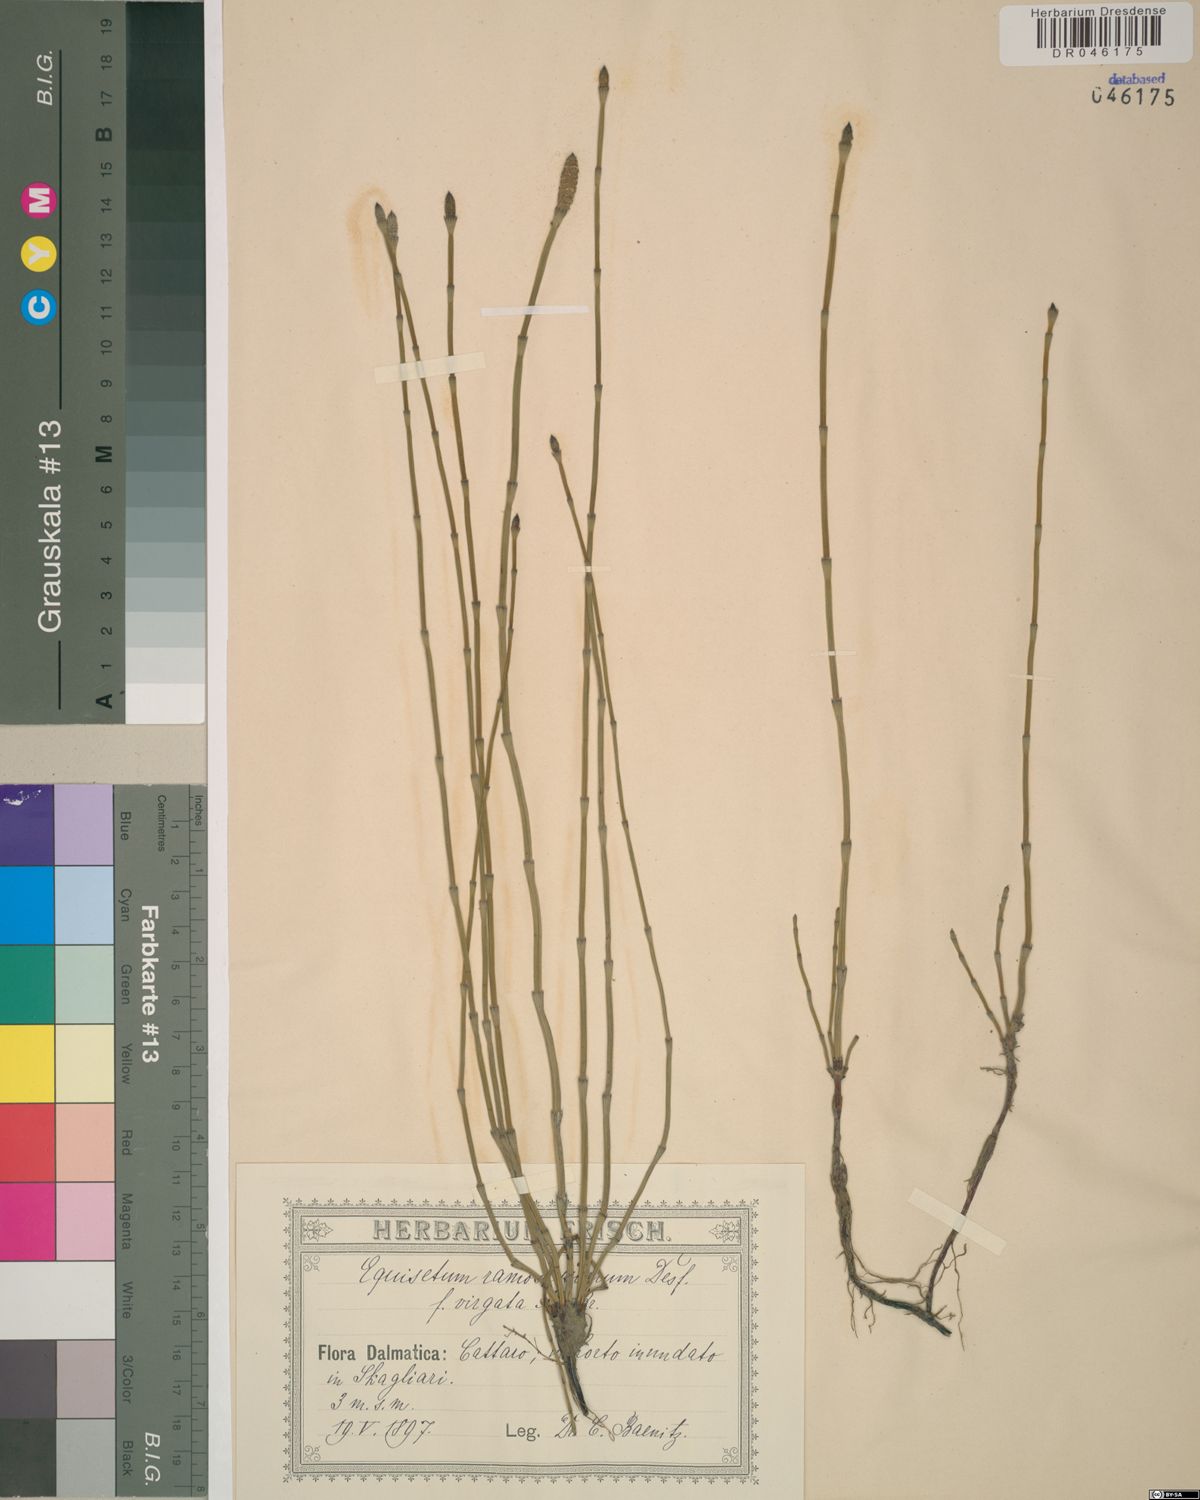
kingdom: Plantae
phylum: Tracheophyta
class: Polypodiopsida
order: Equisetales
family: Equisetaceae
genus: Equisetum
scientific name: Equisetum ramosissimum
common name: Branched horsetail
